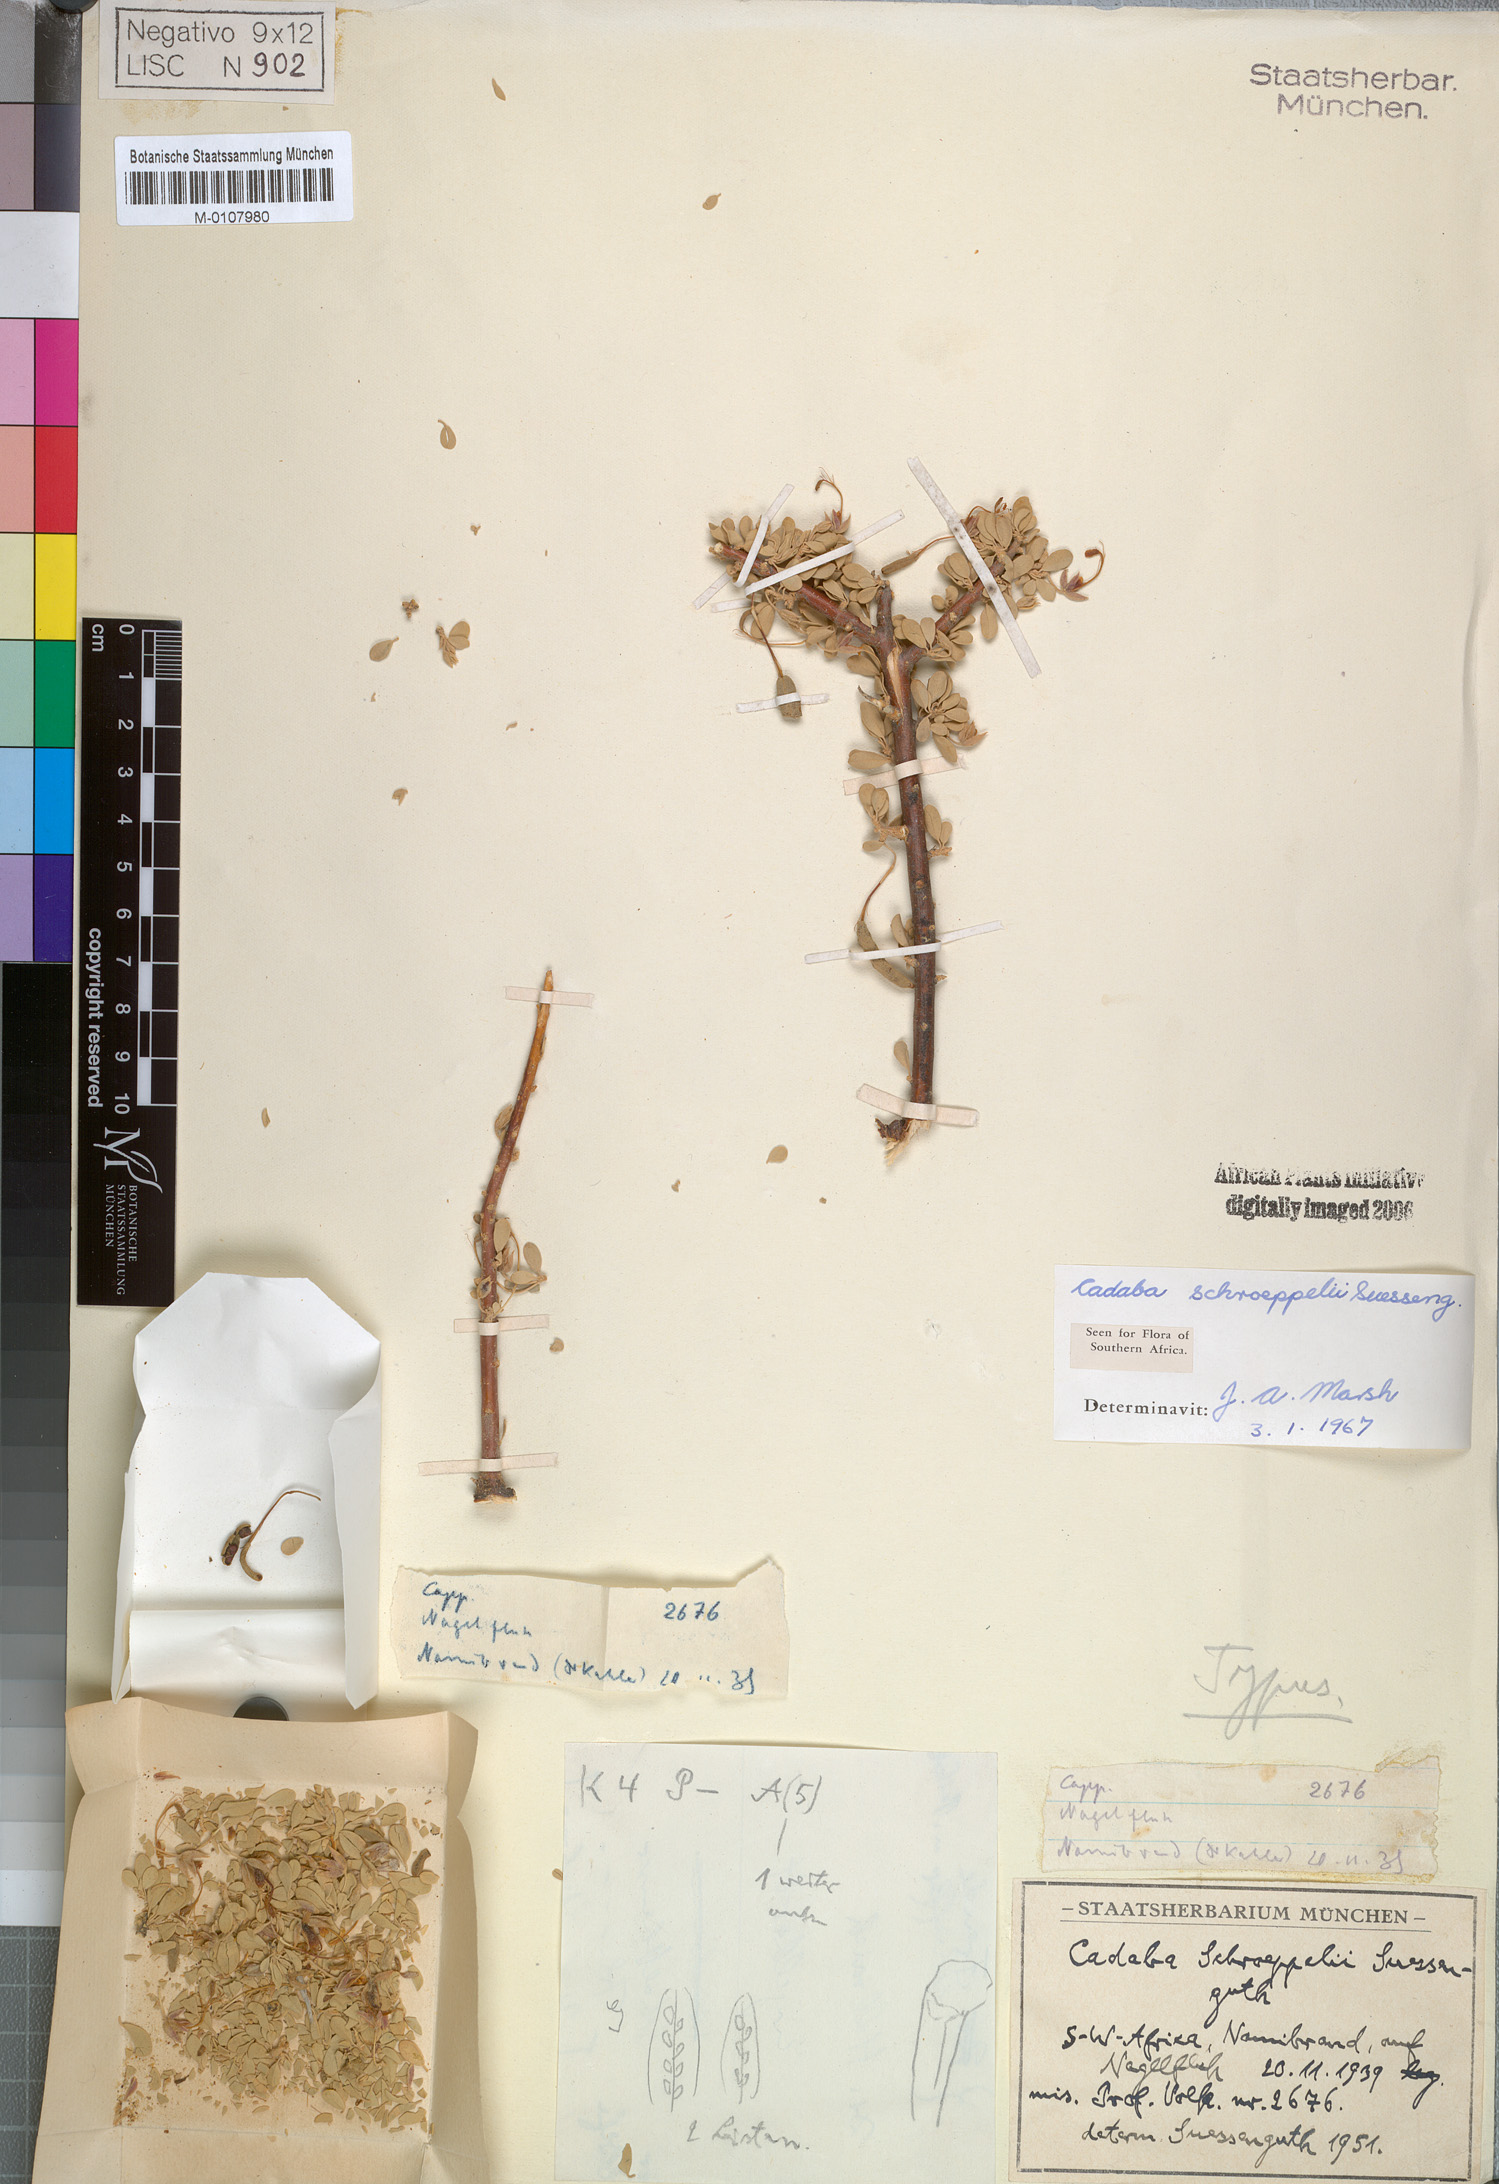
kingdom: Plantae
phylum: Tracheophyta
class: Magnoliopsida
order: Brassicales
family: Capparaceae
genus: Cadaba
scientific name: Cadaba schroeppelii
